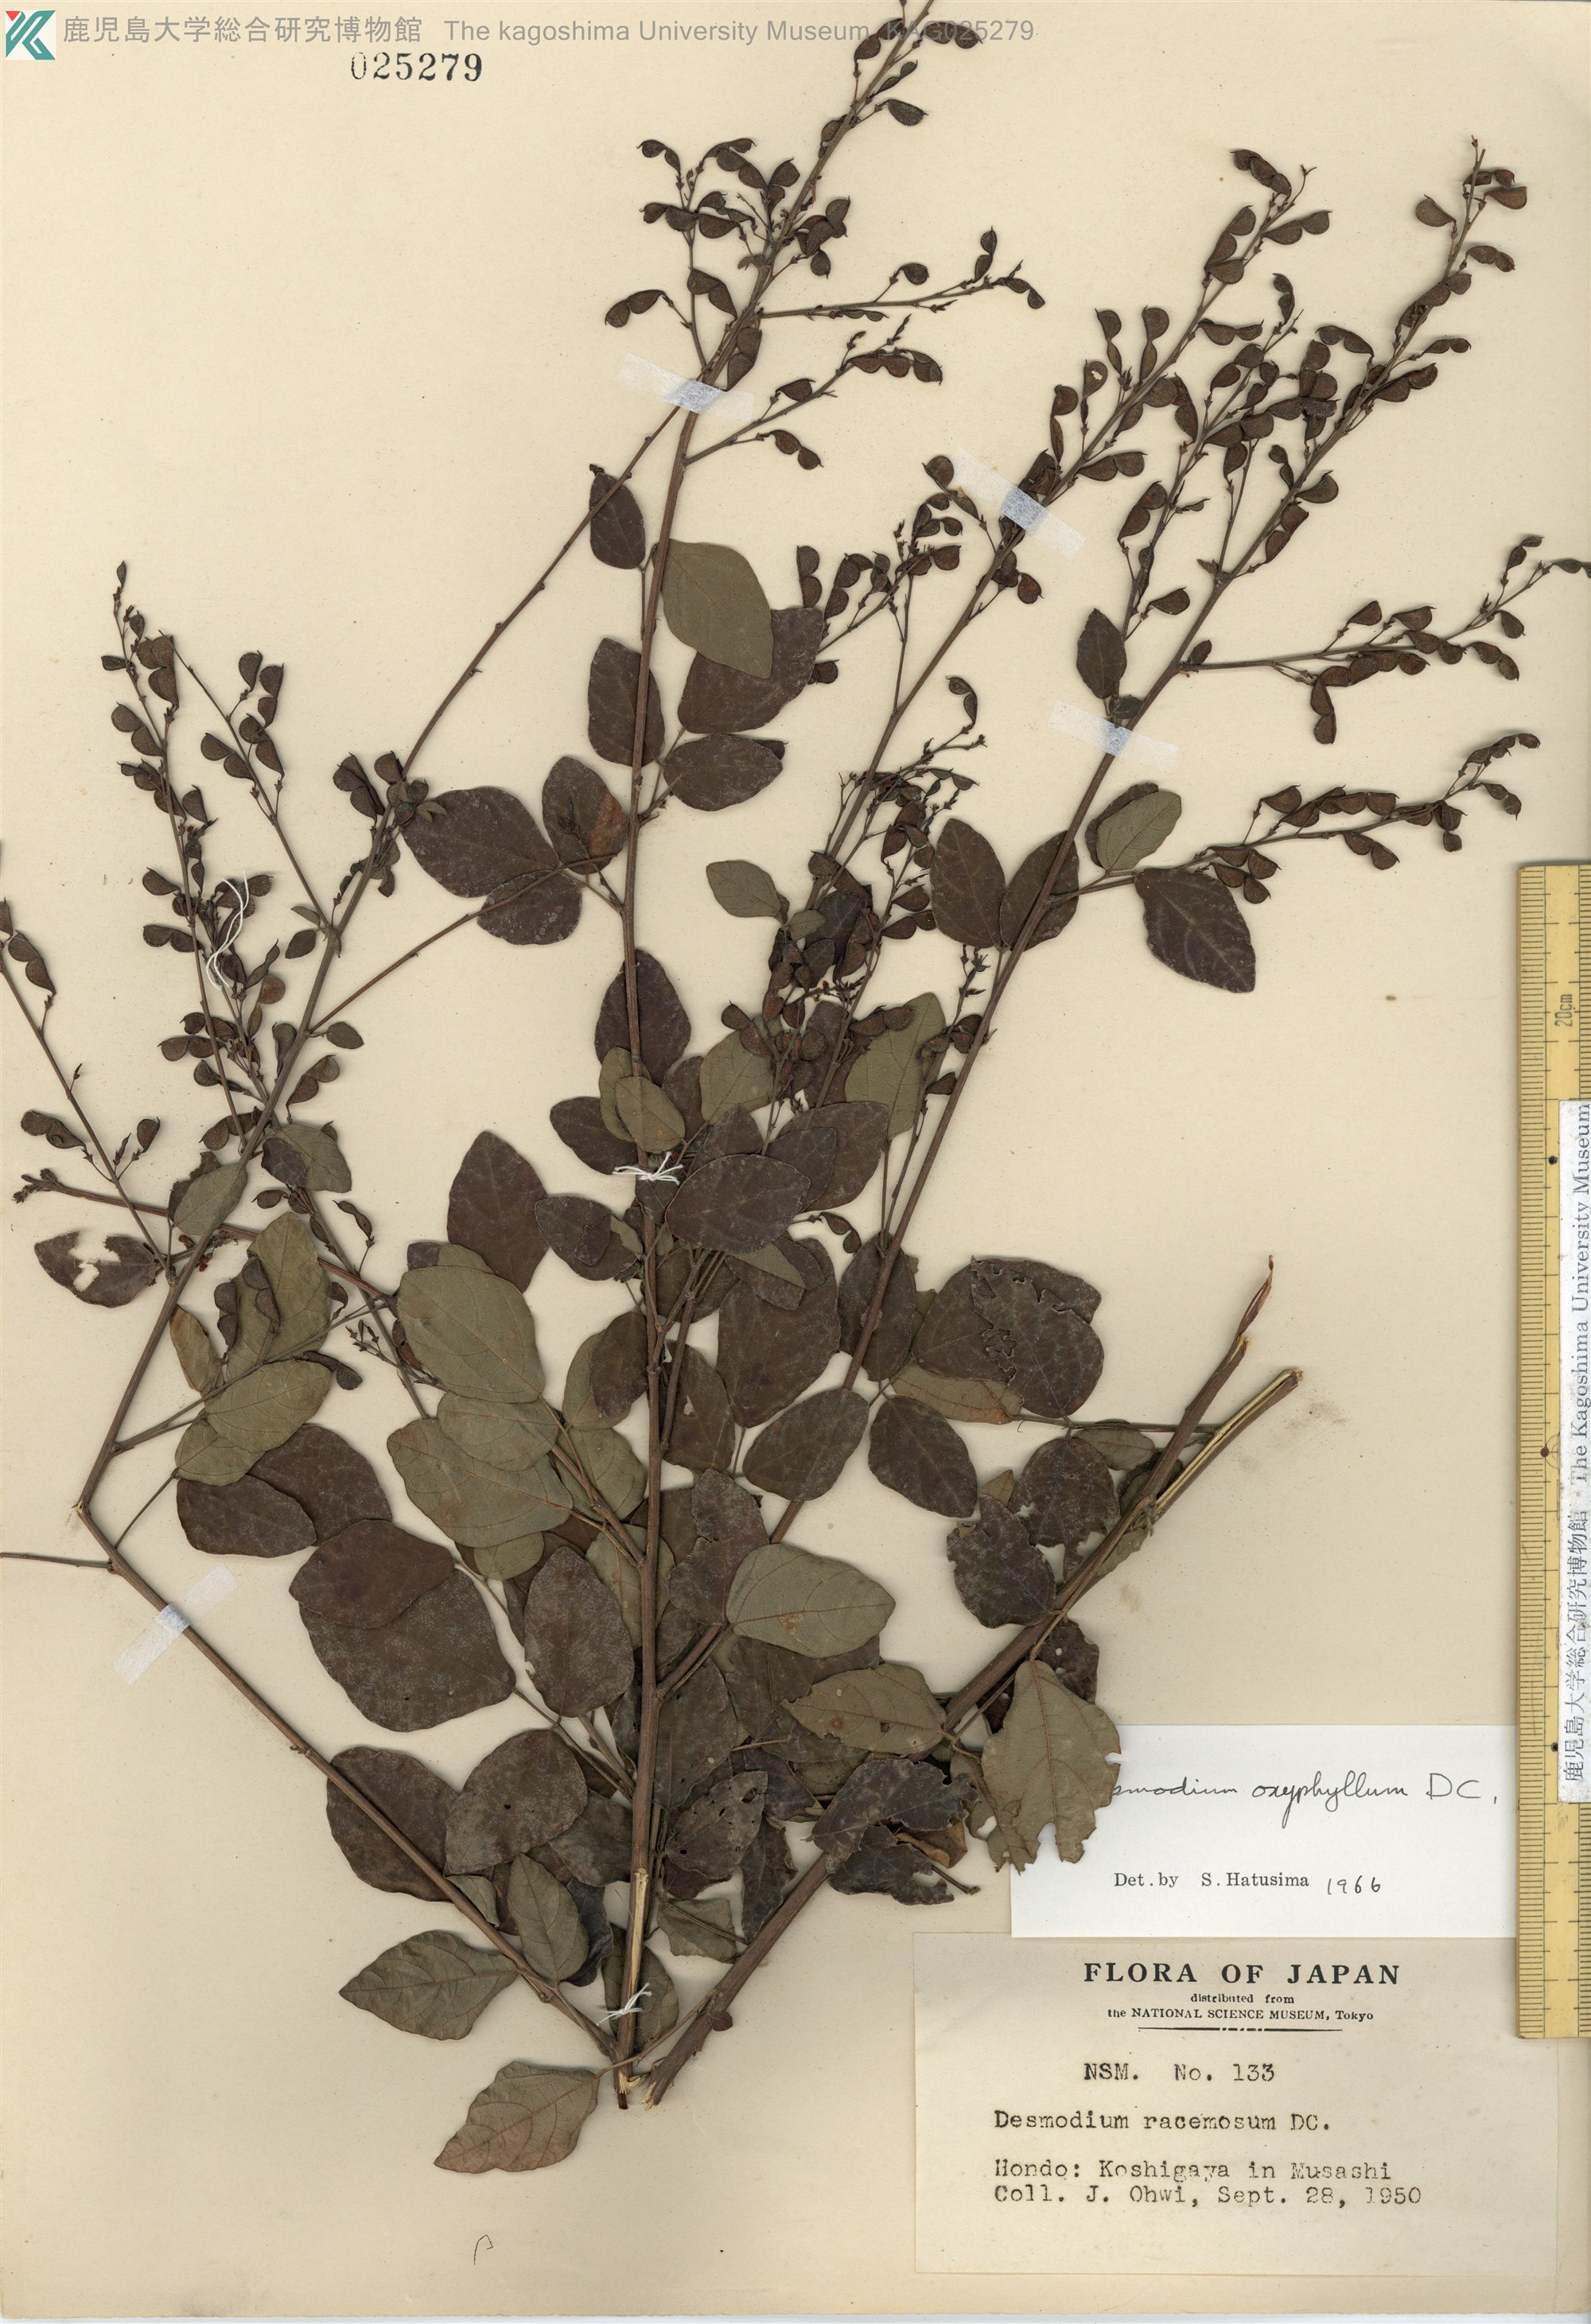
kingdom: Plantae
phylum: Tracheophyta
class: Magnoliopsida
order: Fabales
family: Fabaceae
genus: Hylodesmum
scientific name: Hylodesmum podocarpum
